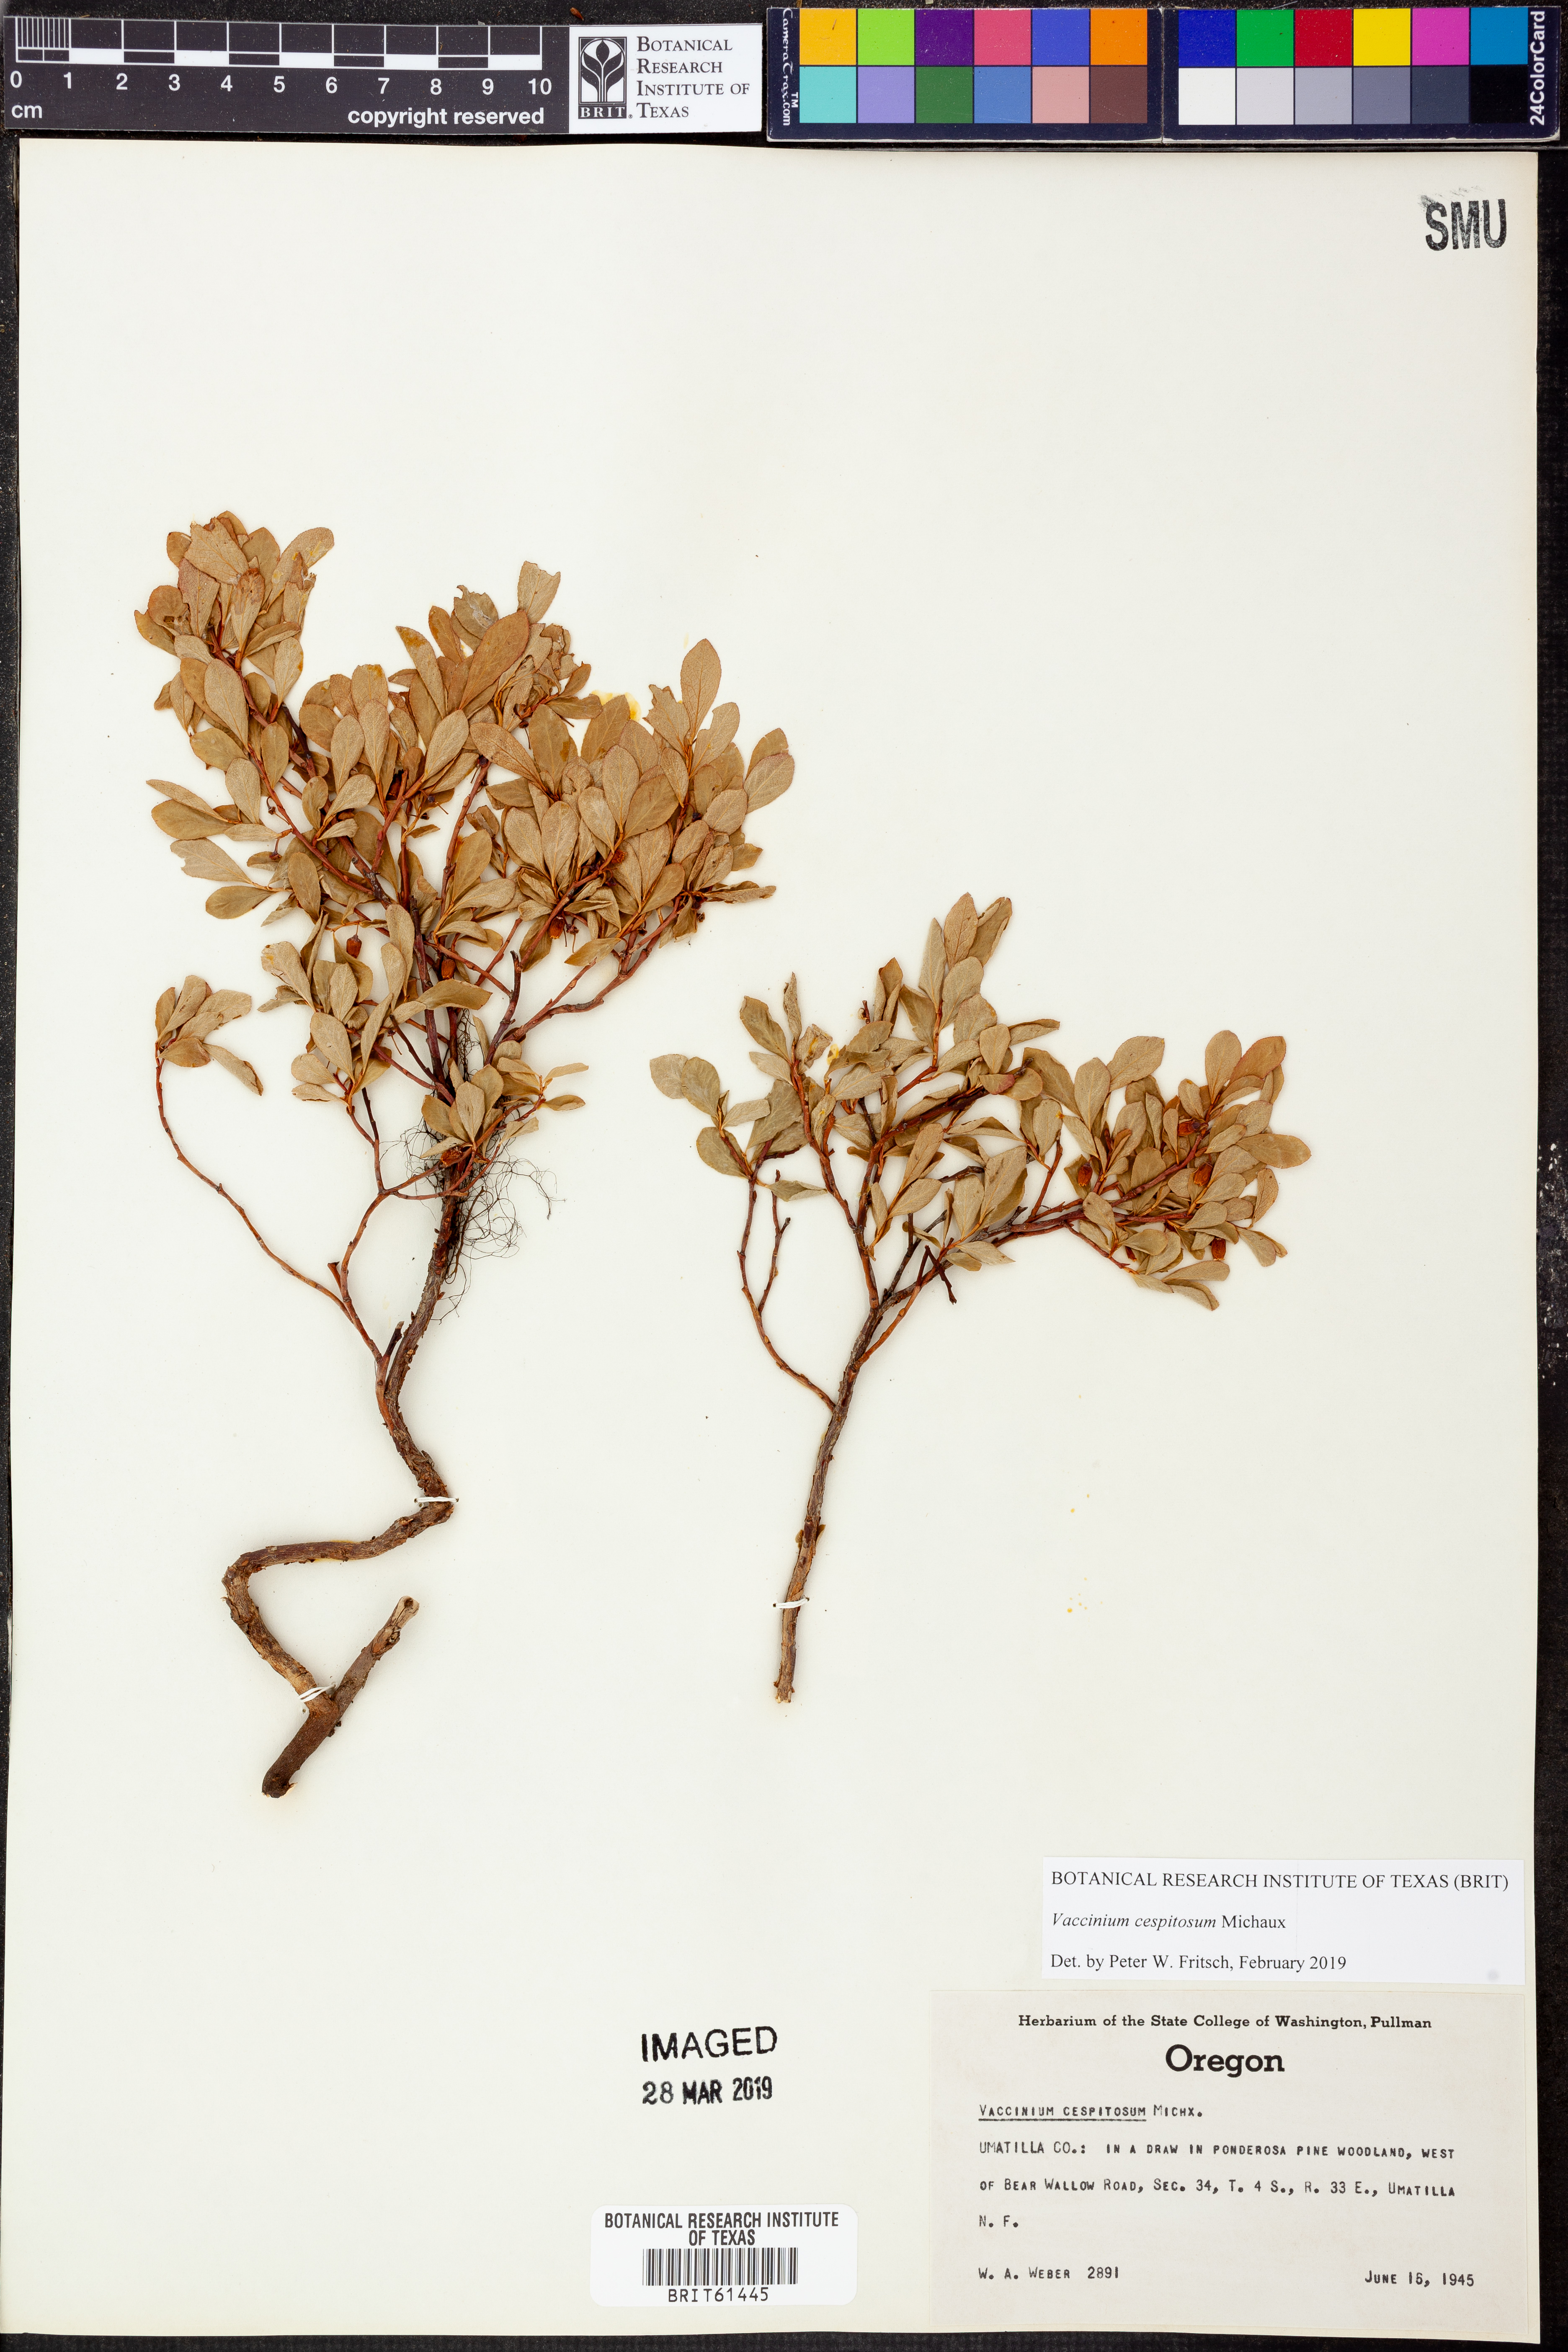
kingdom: Plantae
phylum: Tracheophyta
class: Magnoliopsida
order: Ericales
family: Ericaceae
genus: Vaccinium
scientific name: Vaccinium cespitosum
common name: Dwarf bilberry
